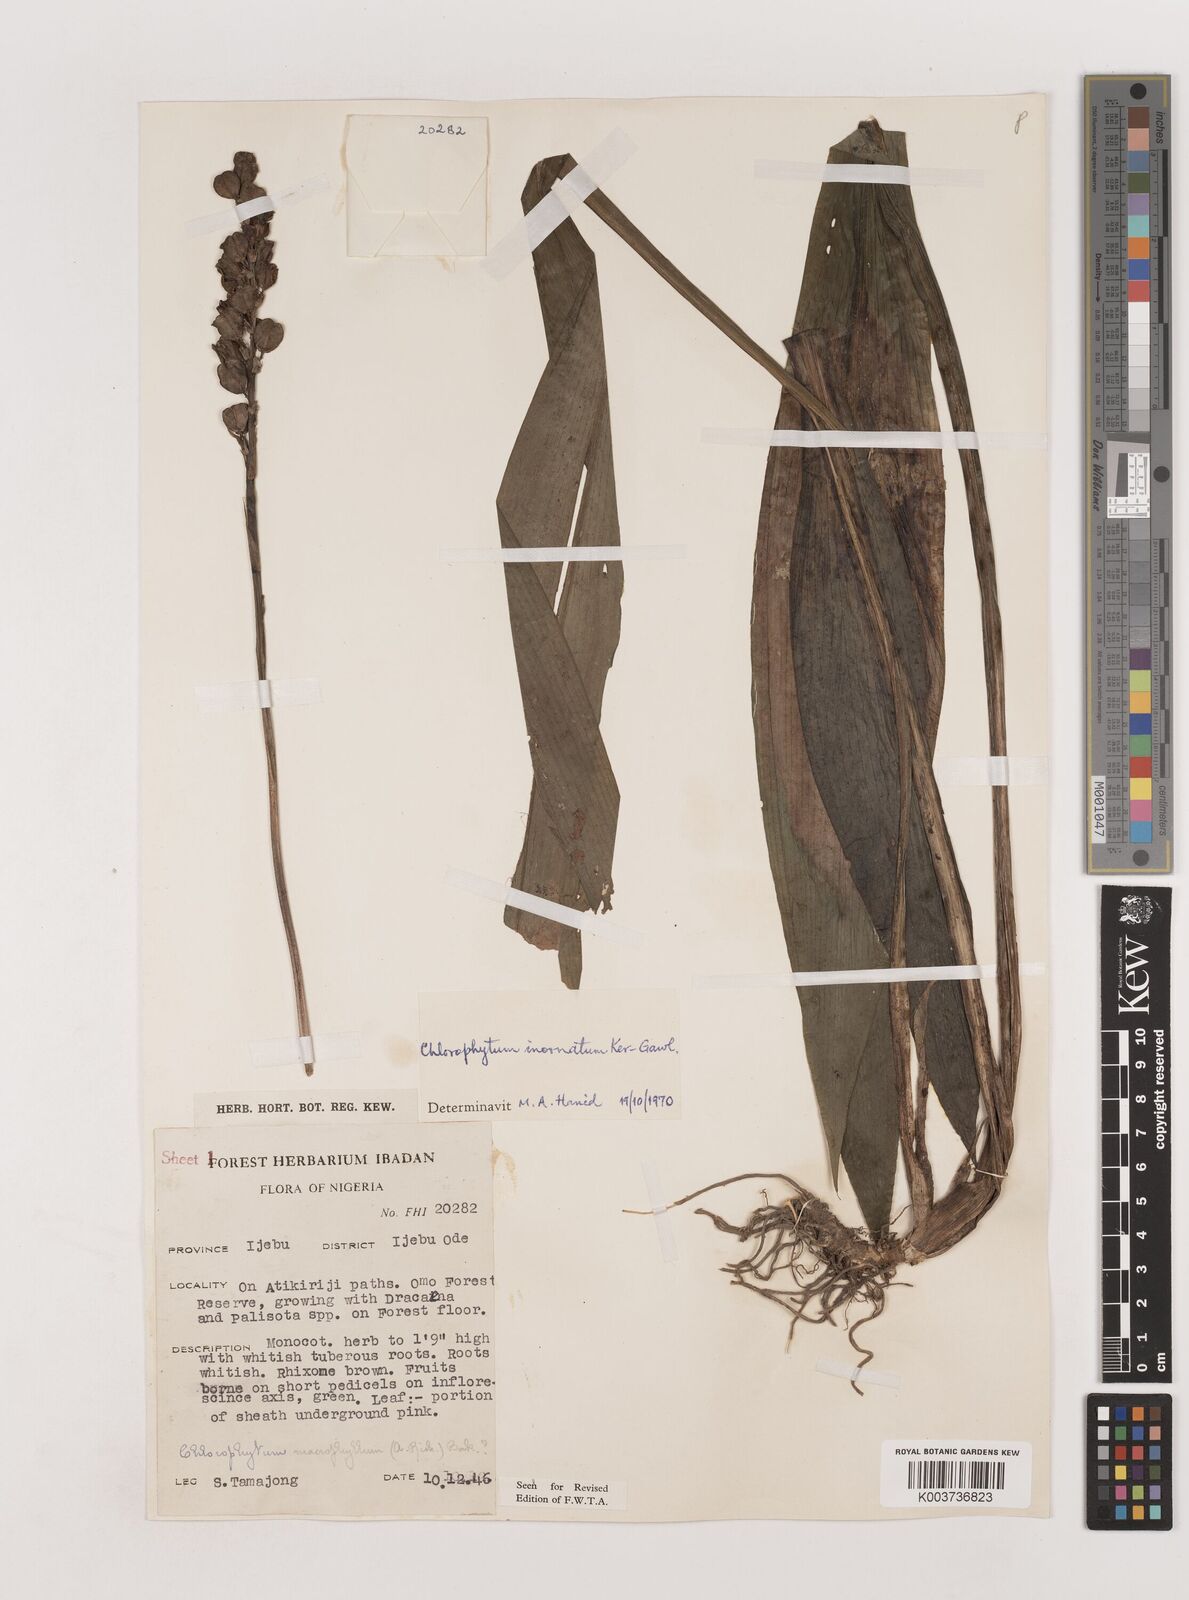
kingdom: Plantae
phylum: Tracheophyta
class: Liliopsida
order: Asparagales
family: Asparagaceae
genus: Chlorophytum
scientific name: Chlorophytum inornatum
